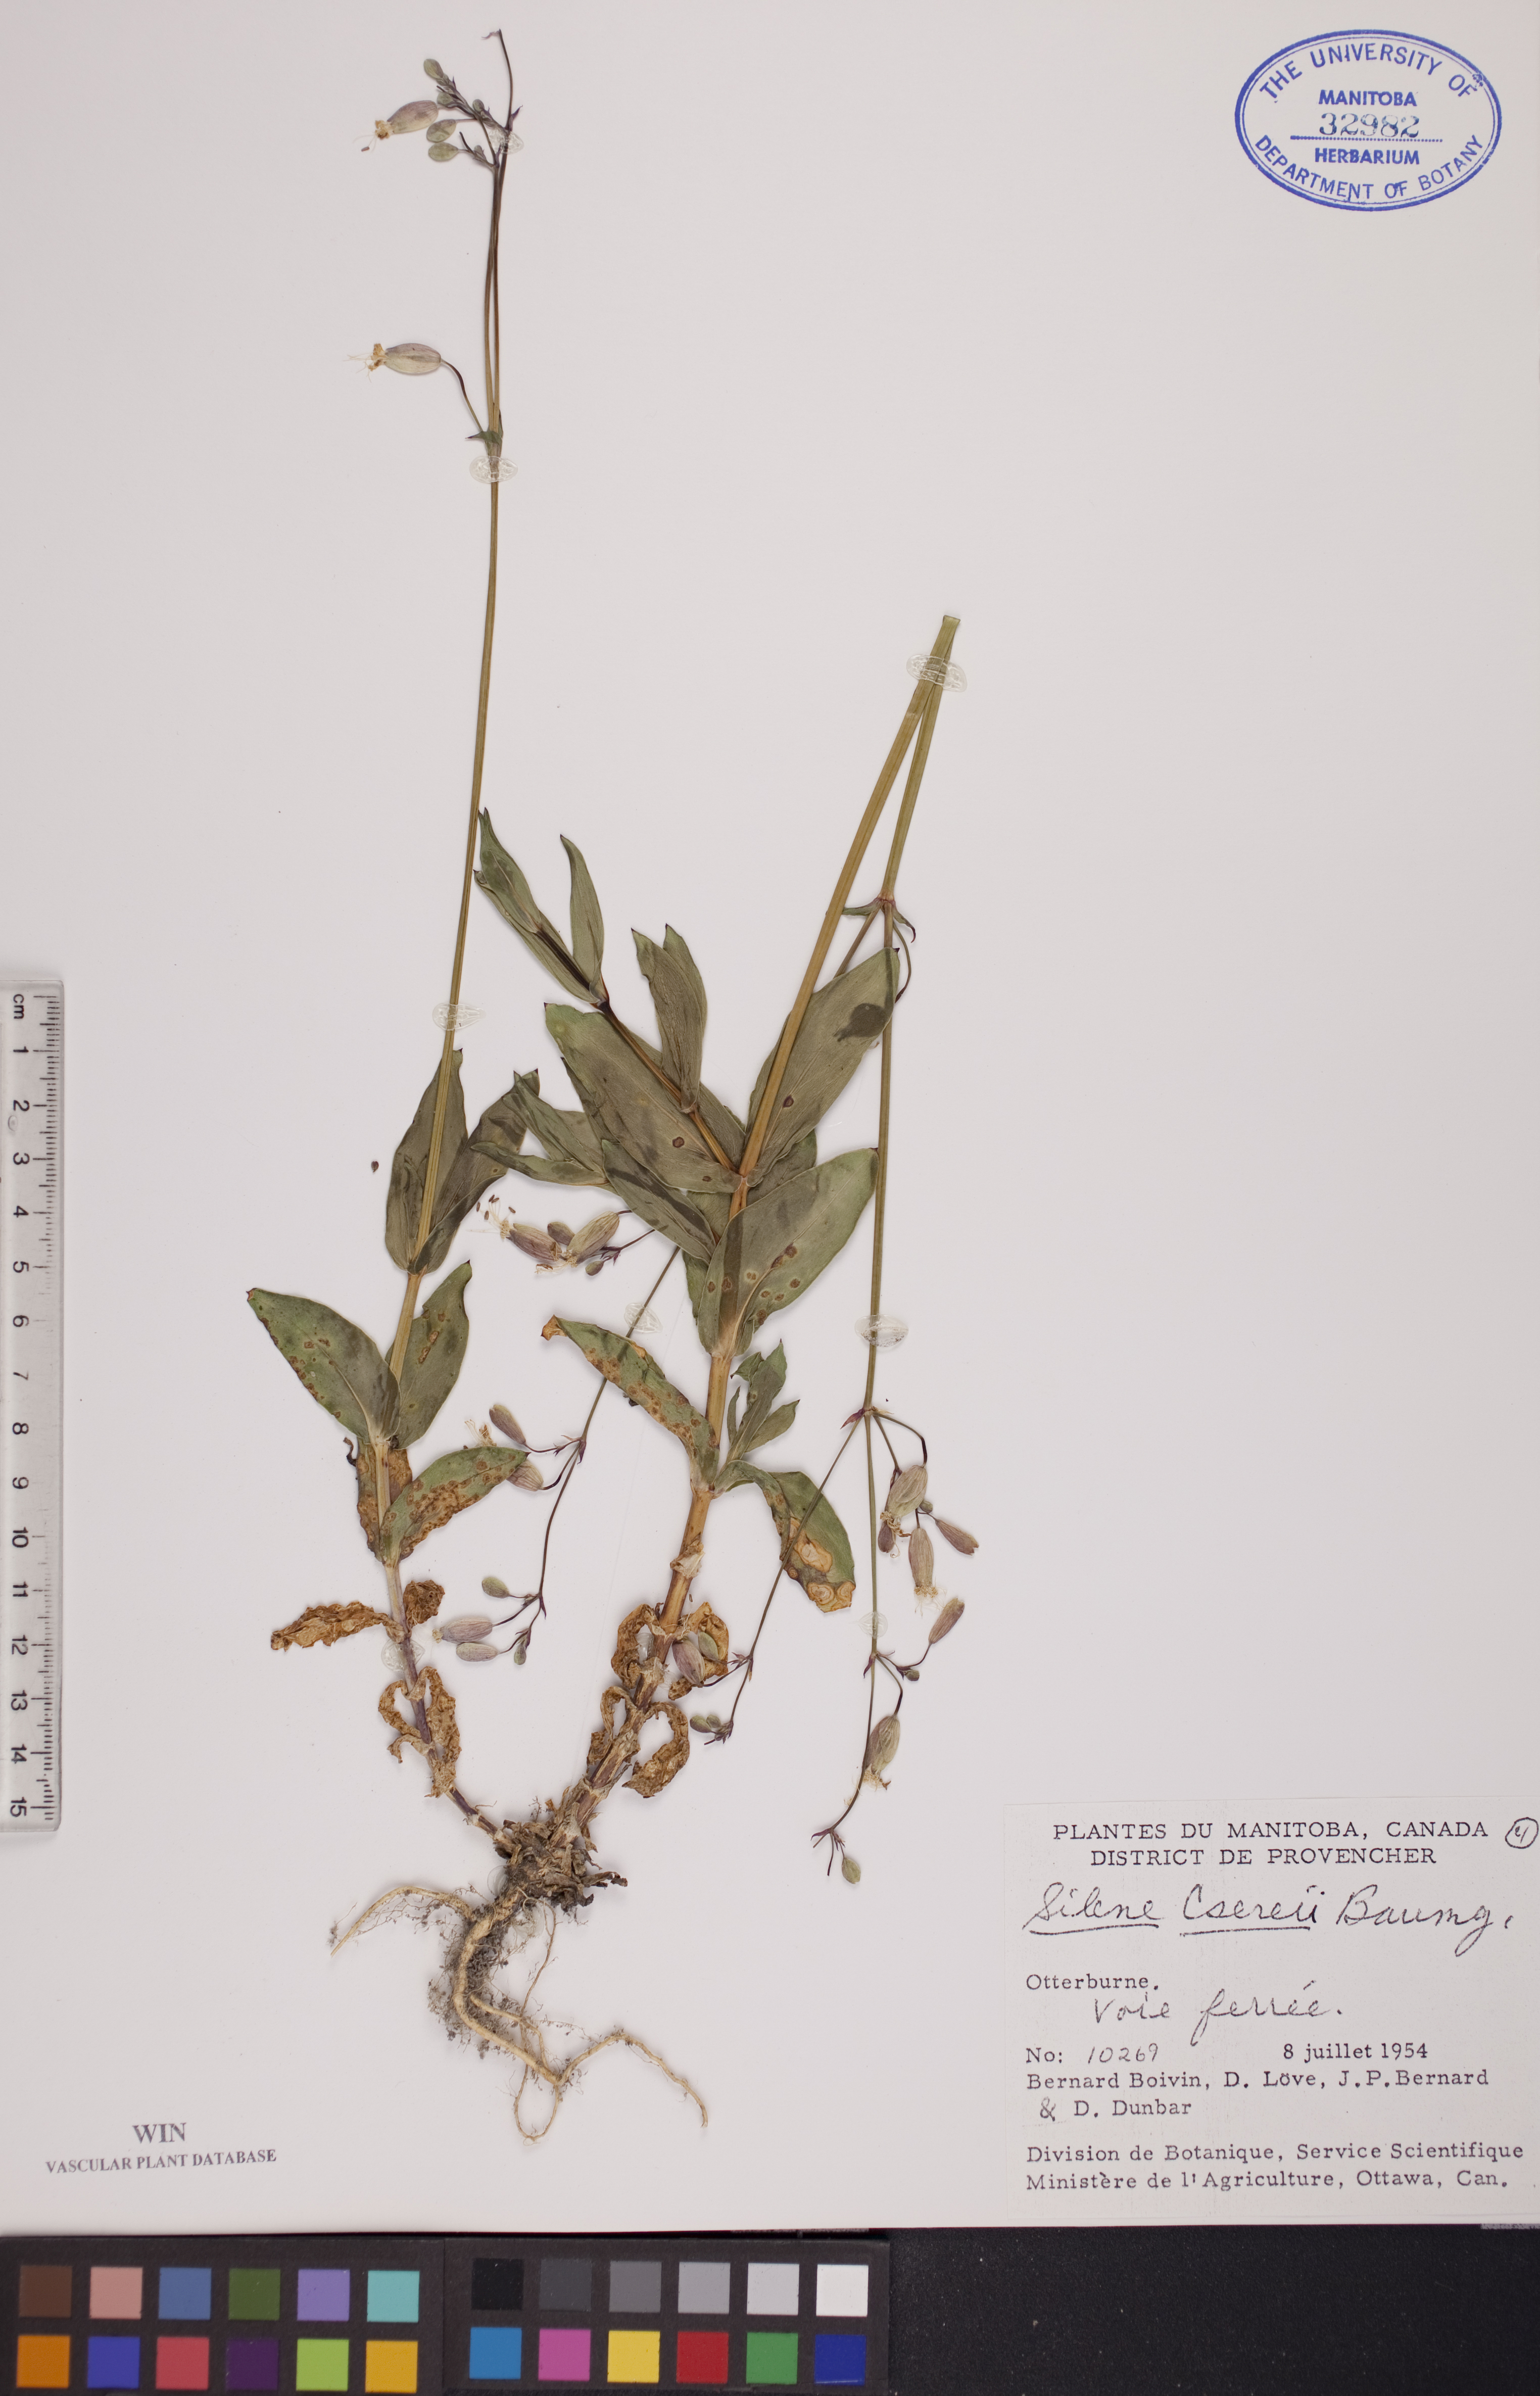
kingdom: Plantae
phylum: Tracheophyta
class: Magnoliopsida
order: Caryophyllales
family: Caryophyllaceae
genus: Silene
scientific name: Silene csereii
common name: Balkan catchfly
